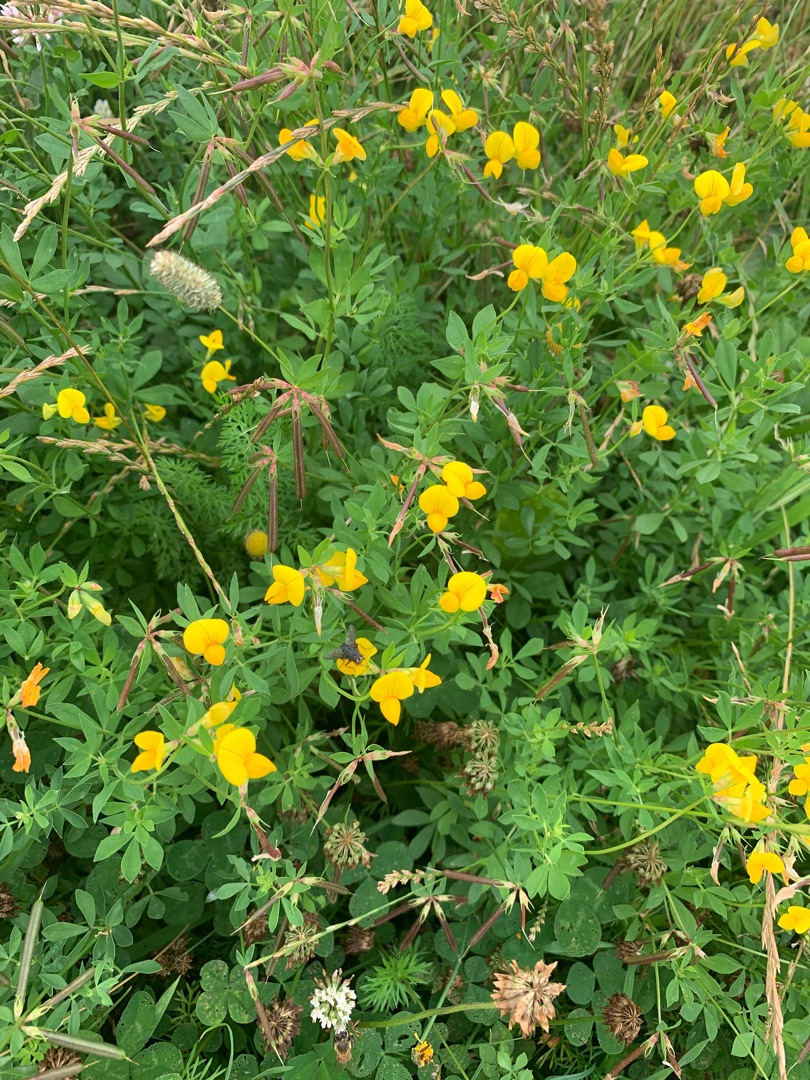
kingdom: Plantae
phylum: Tracheophyta
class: Magnoliopsida
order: Fabales
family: Fabaceae
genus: Lotus
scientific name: Lotus corniculatus
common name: Almindelig kællingetand
